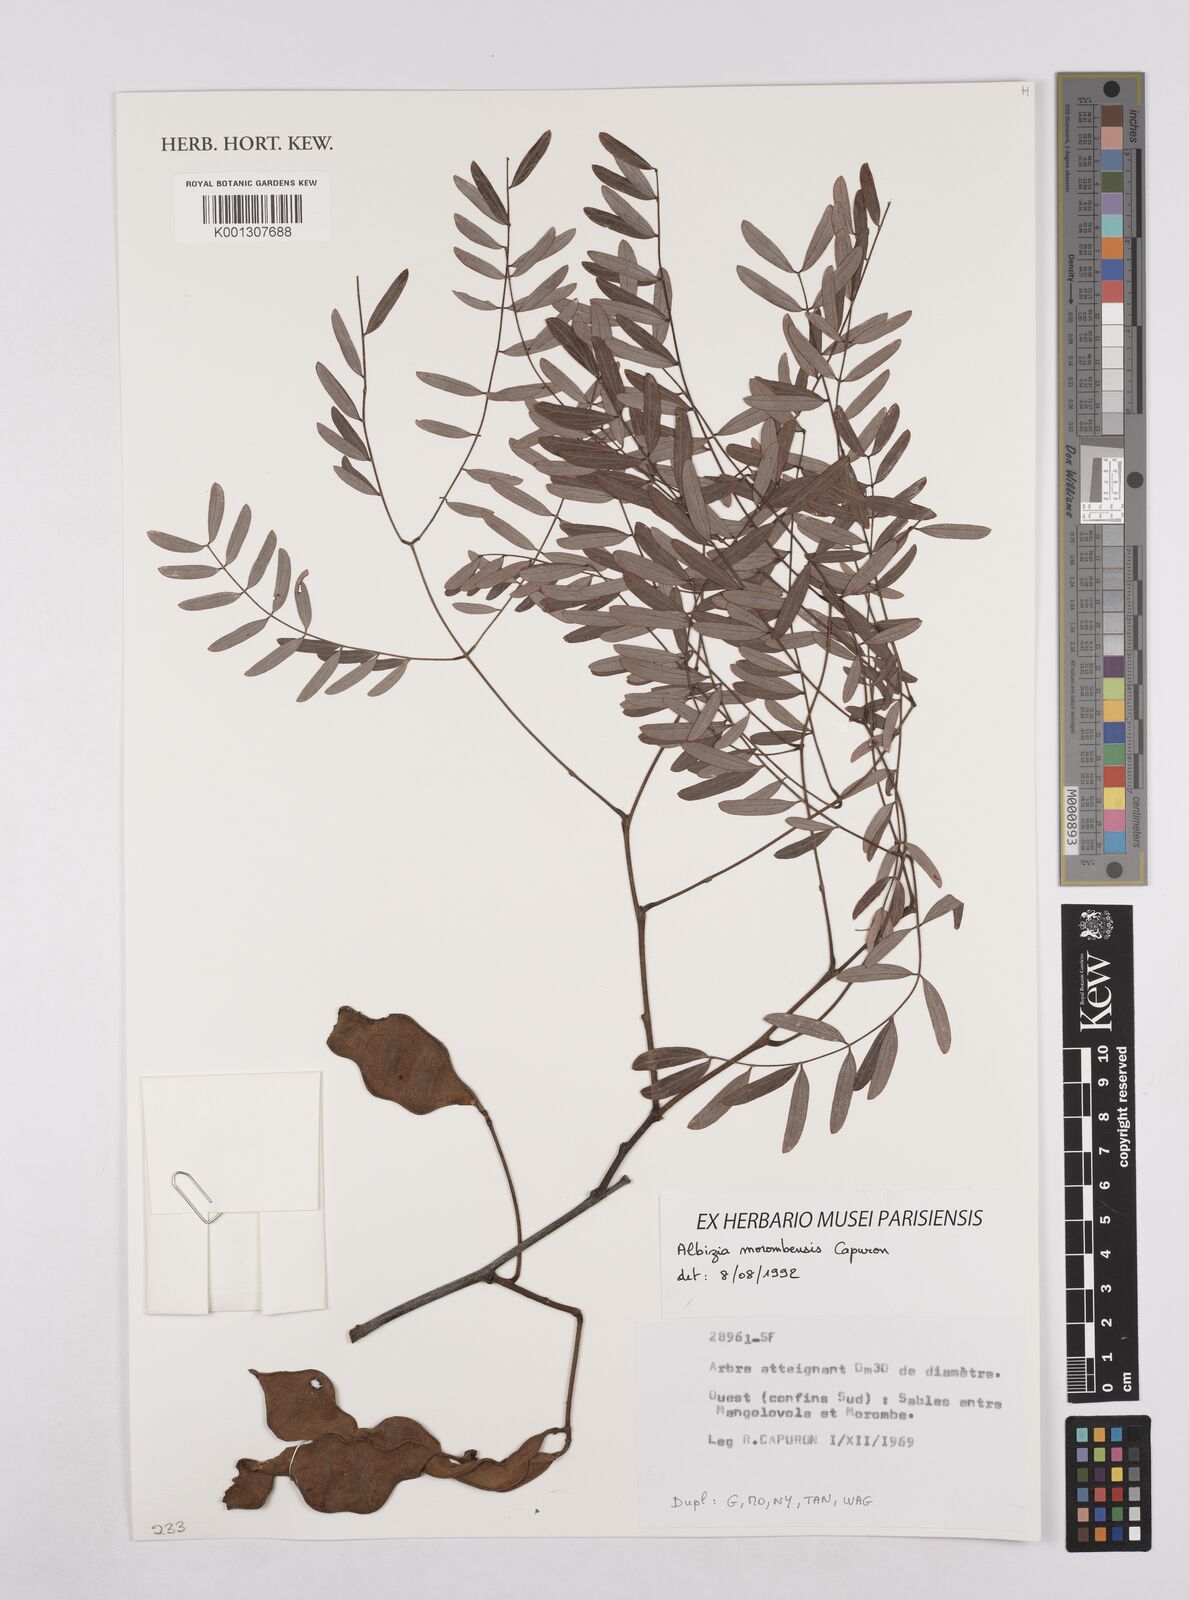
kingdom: Plantae
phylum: Tracheophyta
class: Magnoliopsida
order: Fabales
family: Fabaceae
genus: Albizia
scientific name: Albizia morombensis
